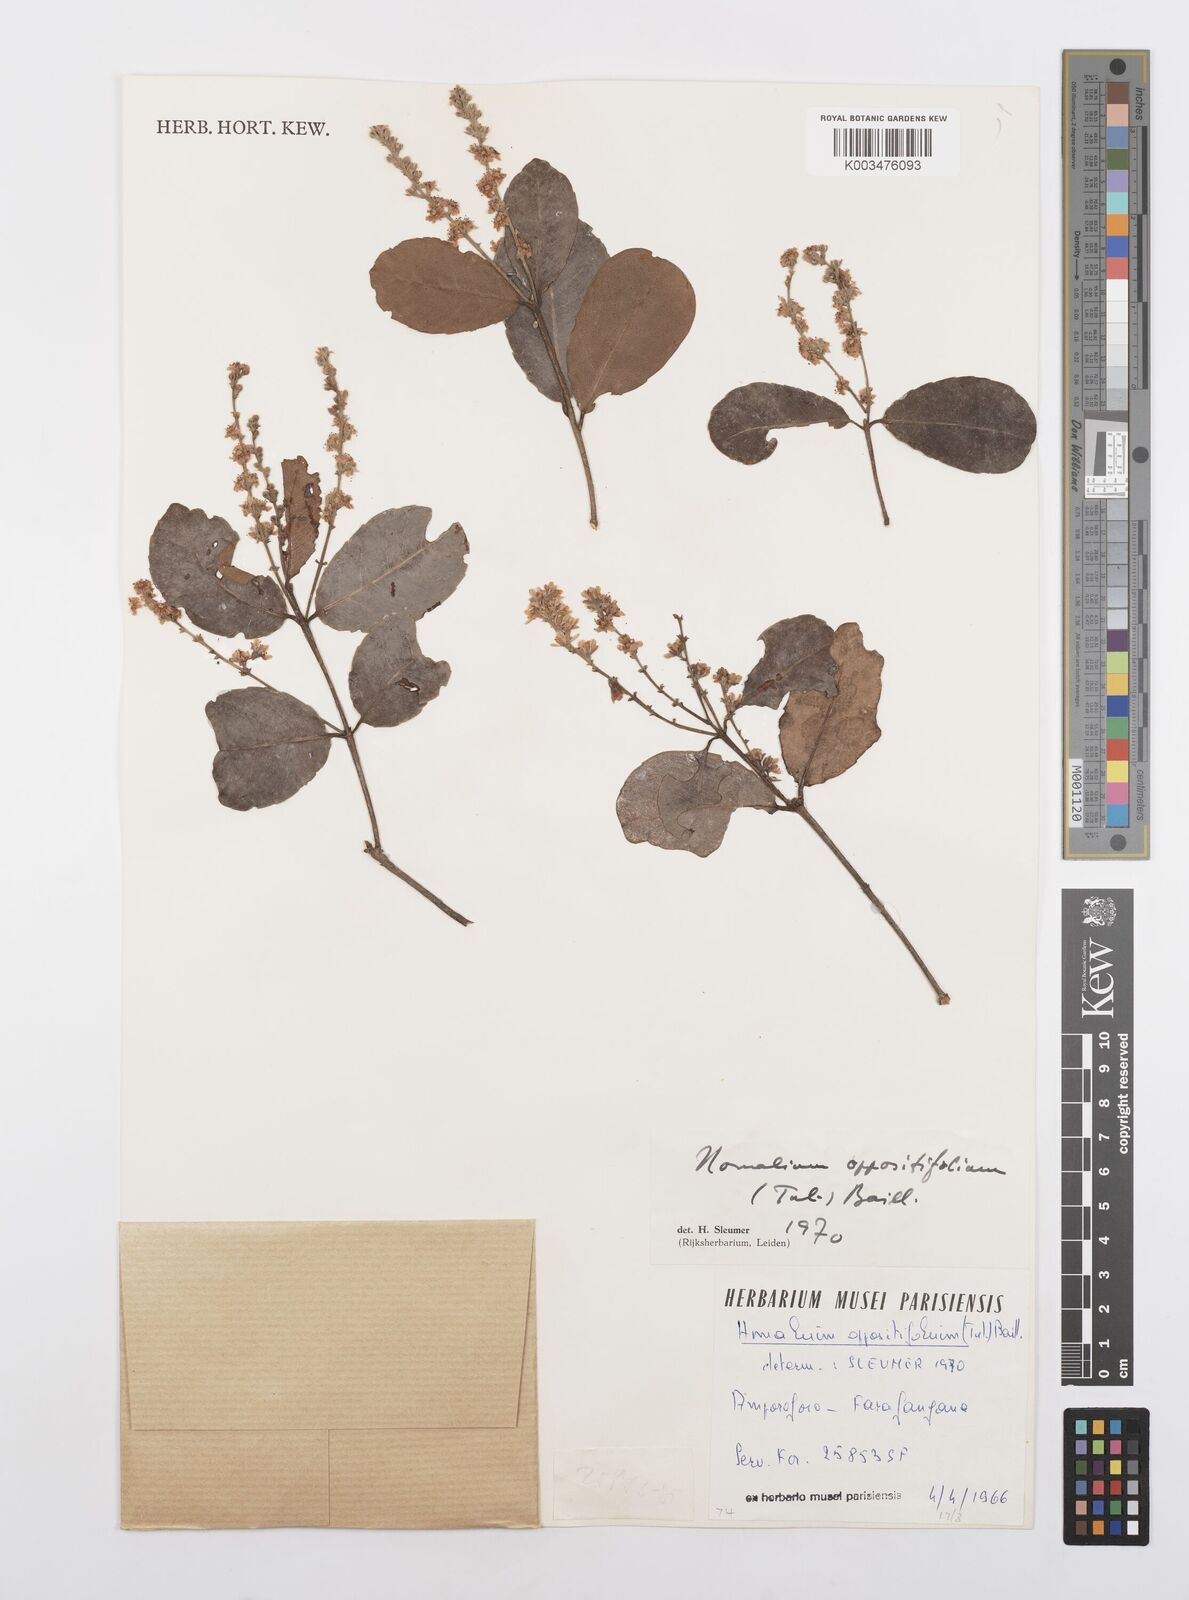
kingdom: Plantae
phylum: Tracheophyta
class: Magnoliopsida
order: Malpighiales
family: Salicaceae
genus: Homalium
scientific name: Homalium oppositifolium
